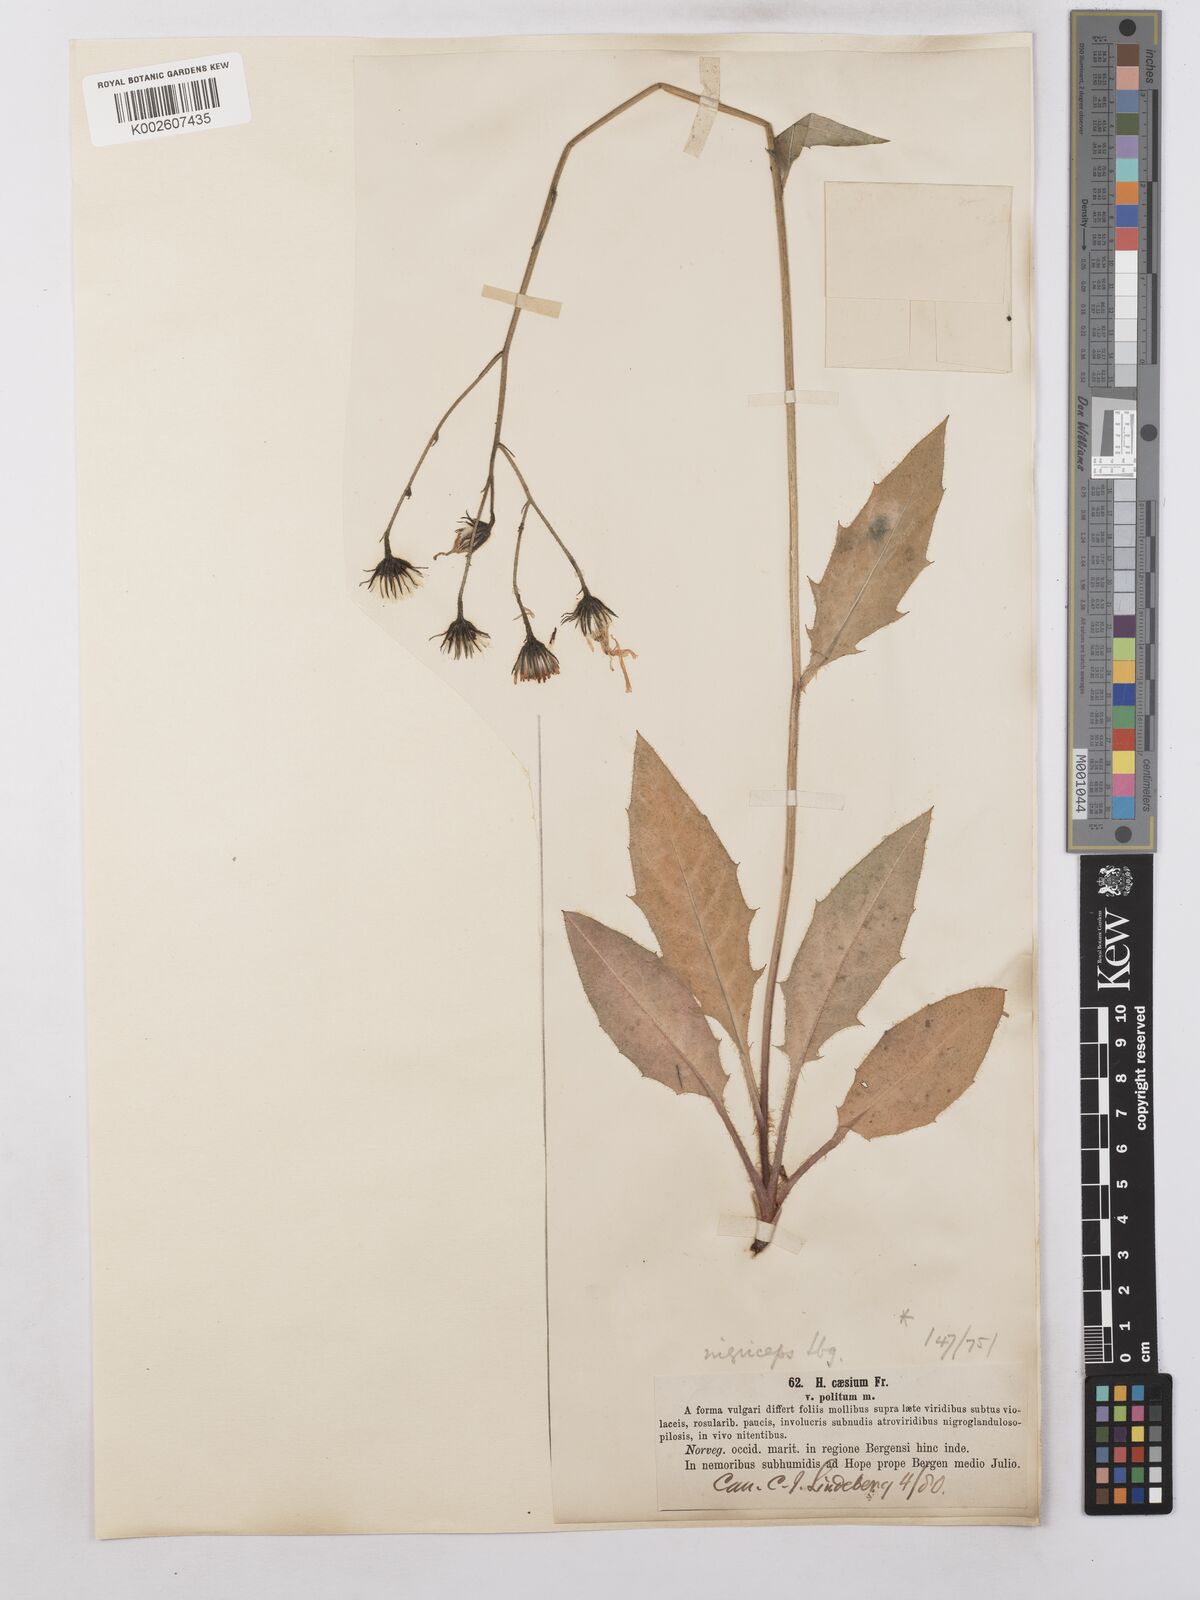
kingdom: Plantae
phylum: Tracheophyta
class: Magnoliopsida
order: Asterales
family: Asteraceae
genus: Hieracium
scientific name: Hieracium caesium
